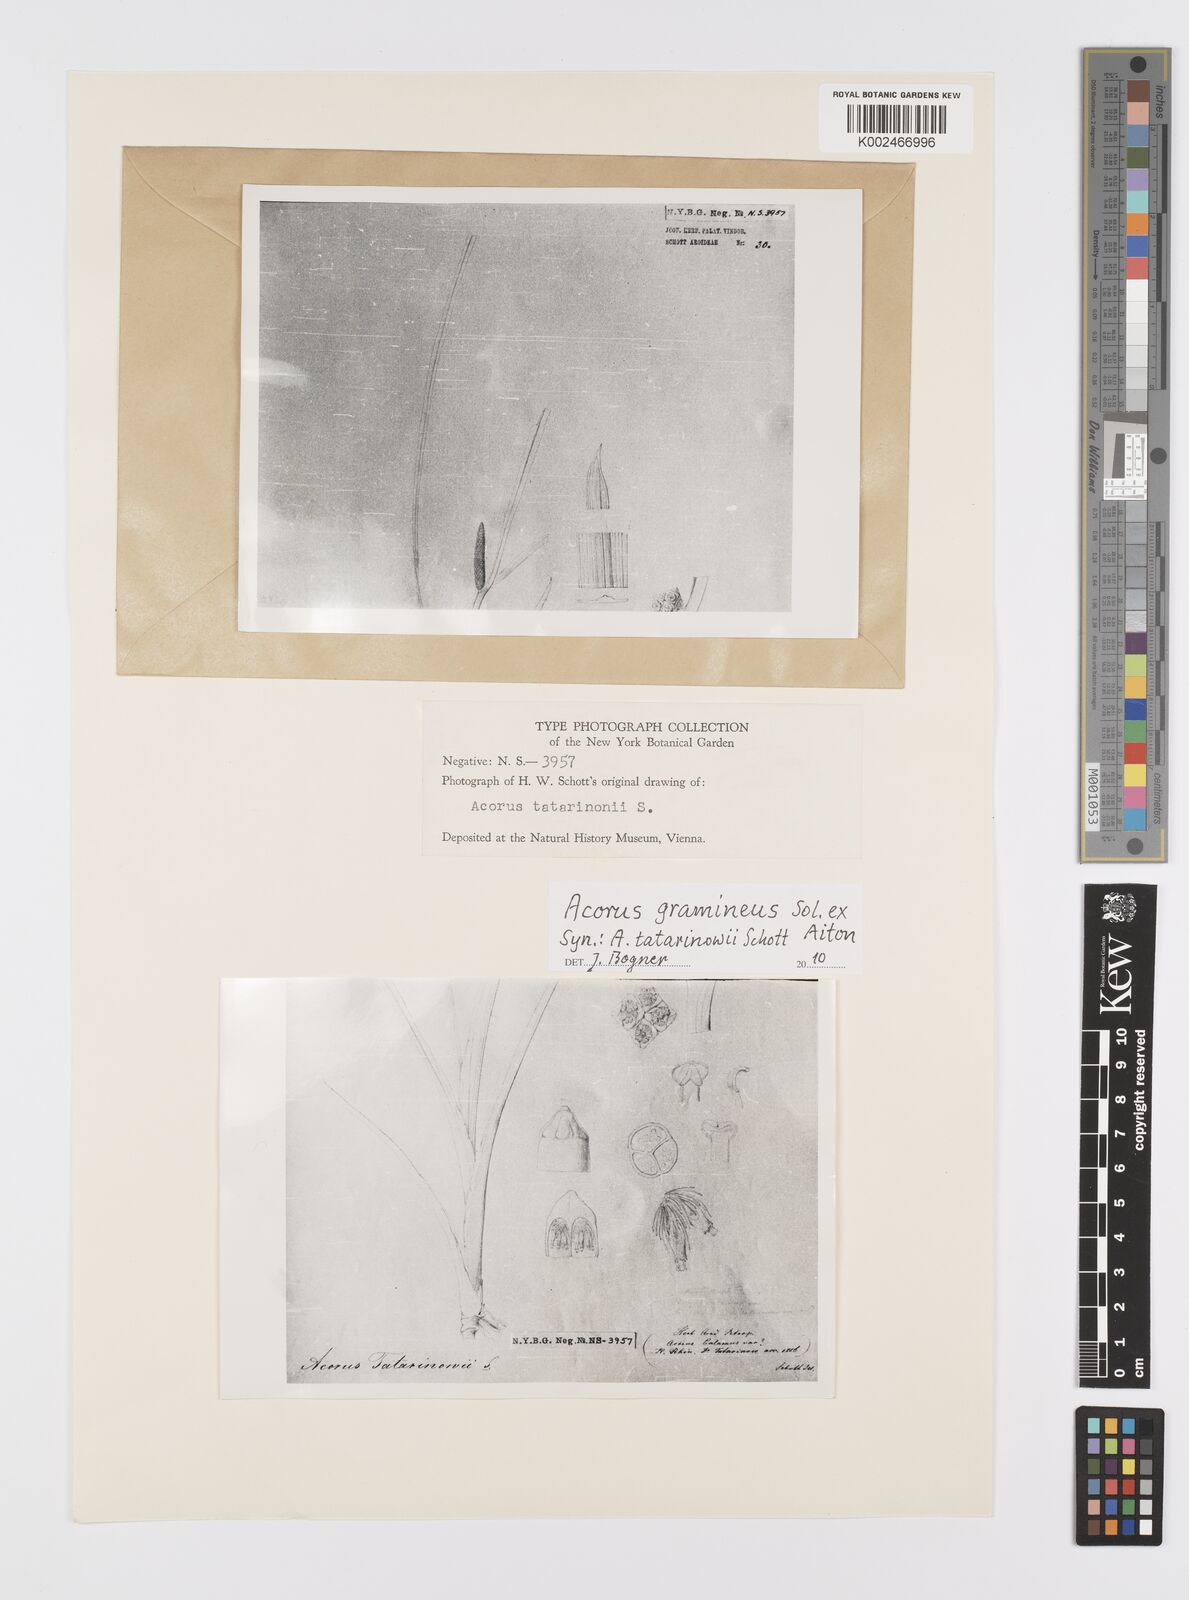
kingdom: Plantae
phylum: Tracheophyta
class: Liliopsida
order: Acorales
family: Acoraceae
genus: Acorus
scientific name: Acorus calamus
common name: Sweet-flag
